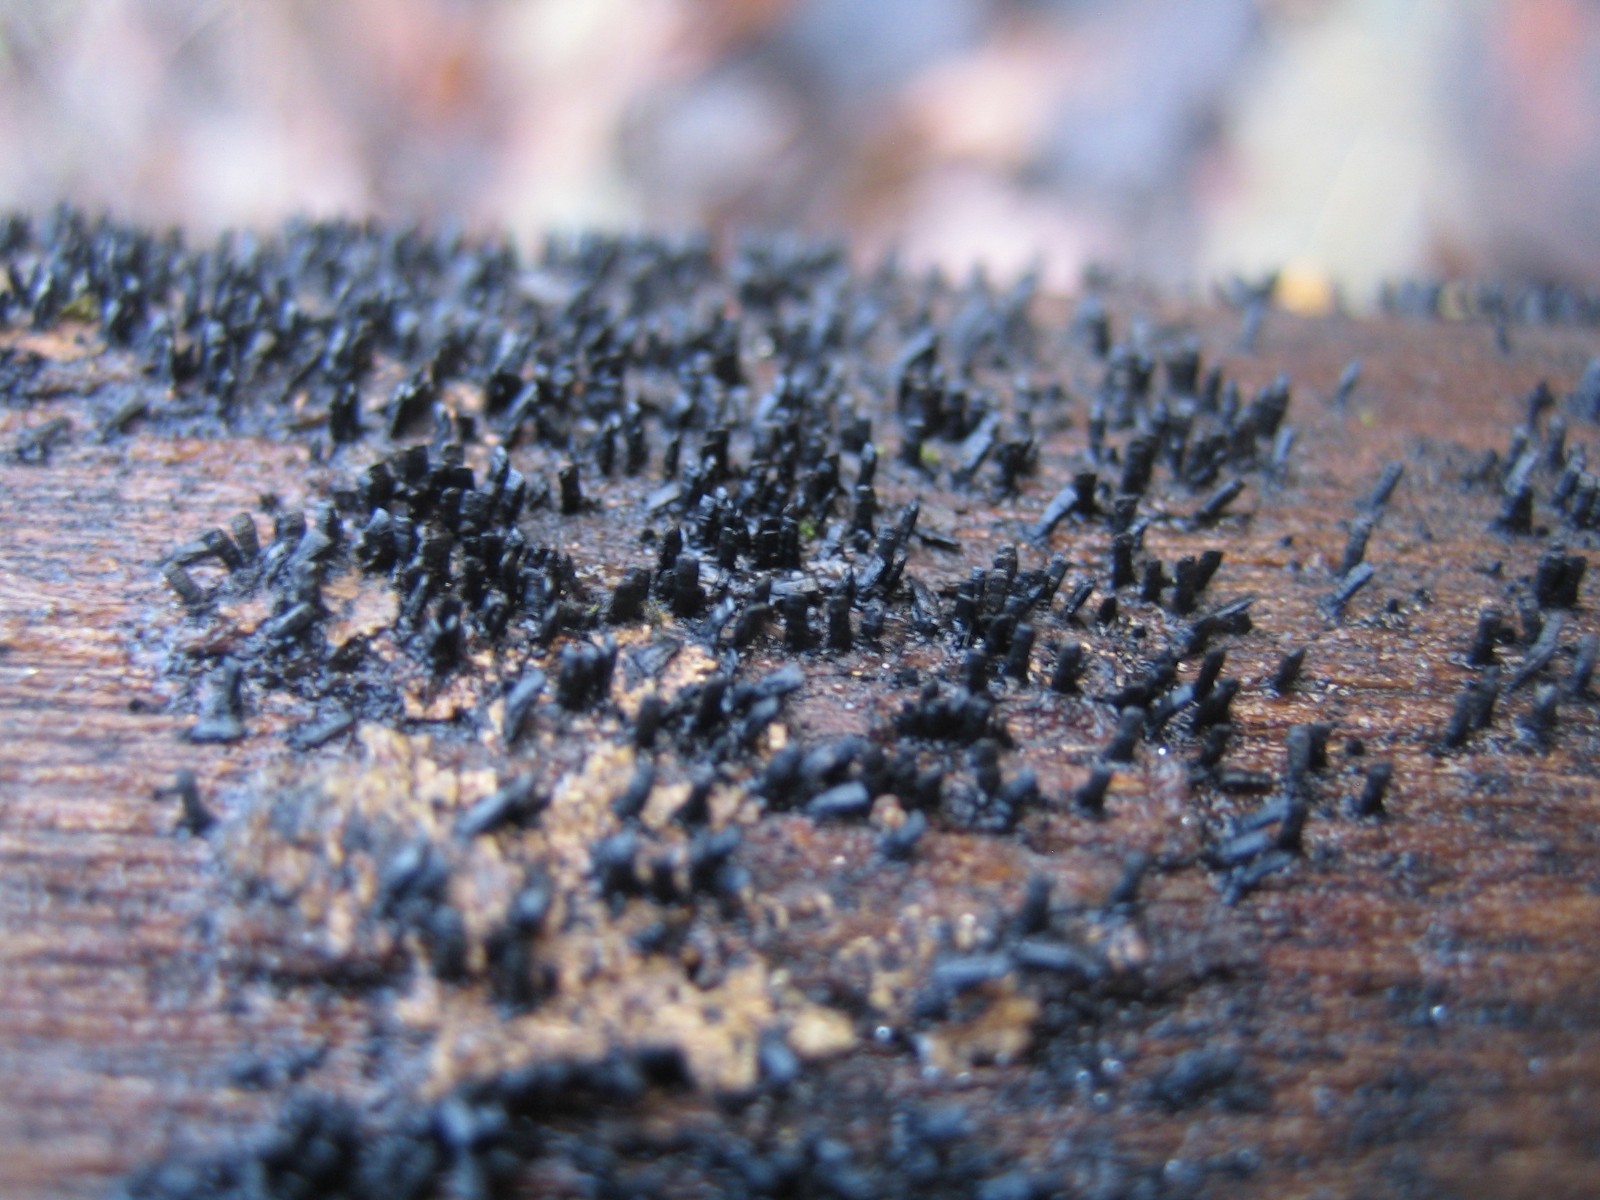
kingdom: Fungi
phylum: Ascomycota
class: Eurotiomycetes
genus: Glyphium
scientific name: Glyphium elatum
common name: kuløkse
